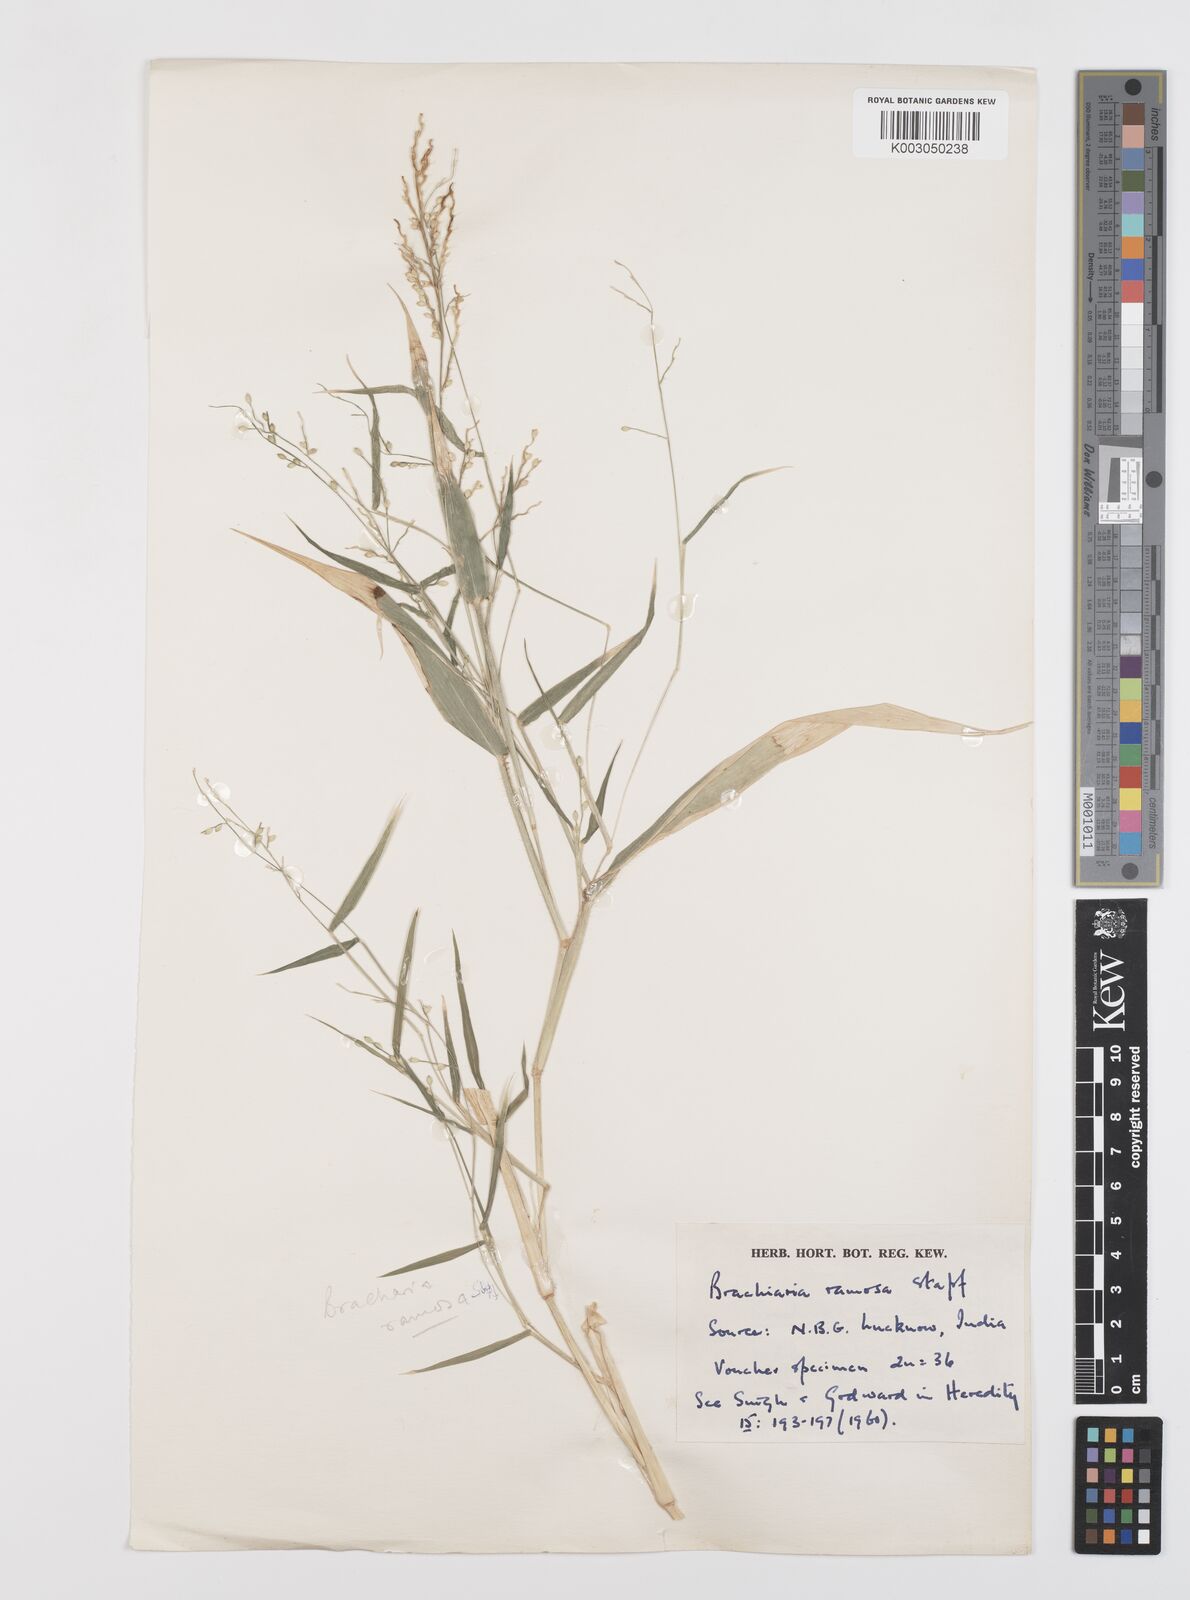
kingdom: Plantae
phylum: Tracheophyta
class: Liliopsida
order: Poales
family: Poaceae
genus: Urochloa
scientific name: Urochloa ramosa
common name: Browntop millet
